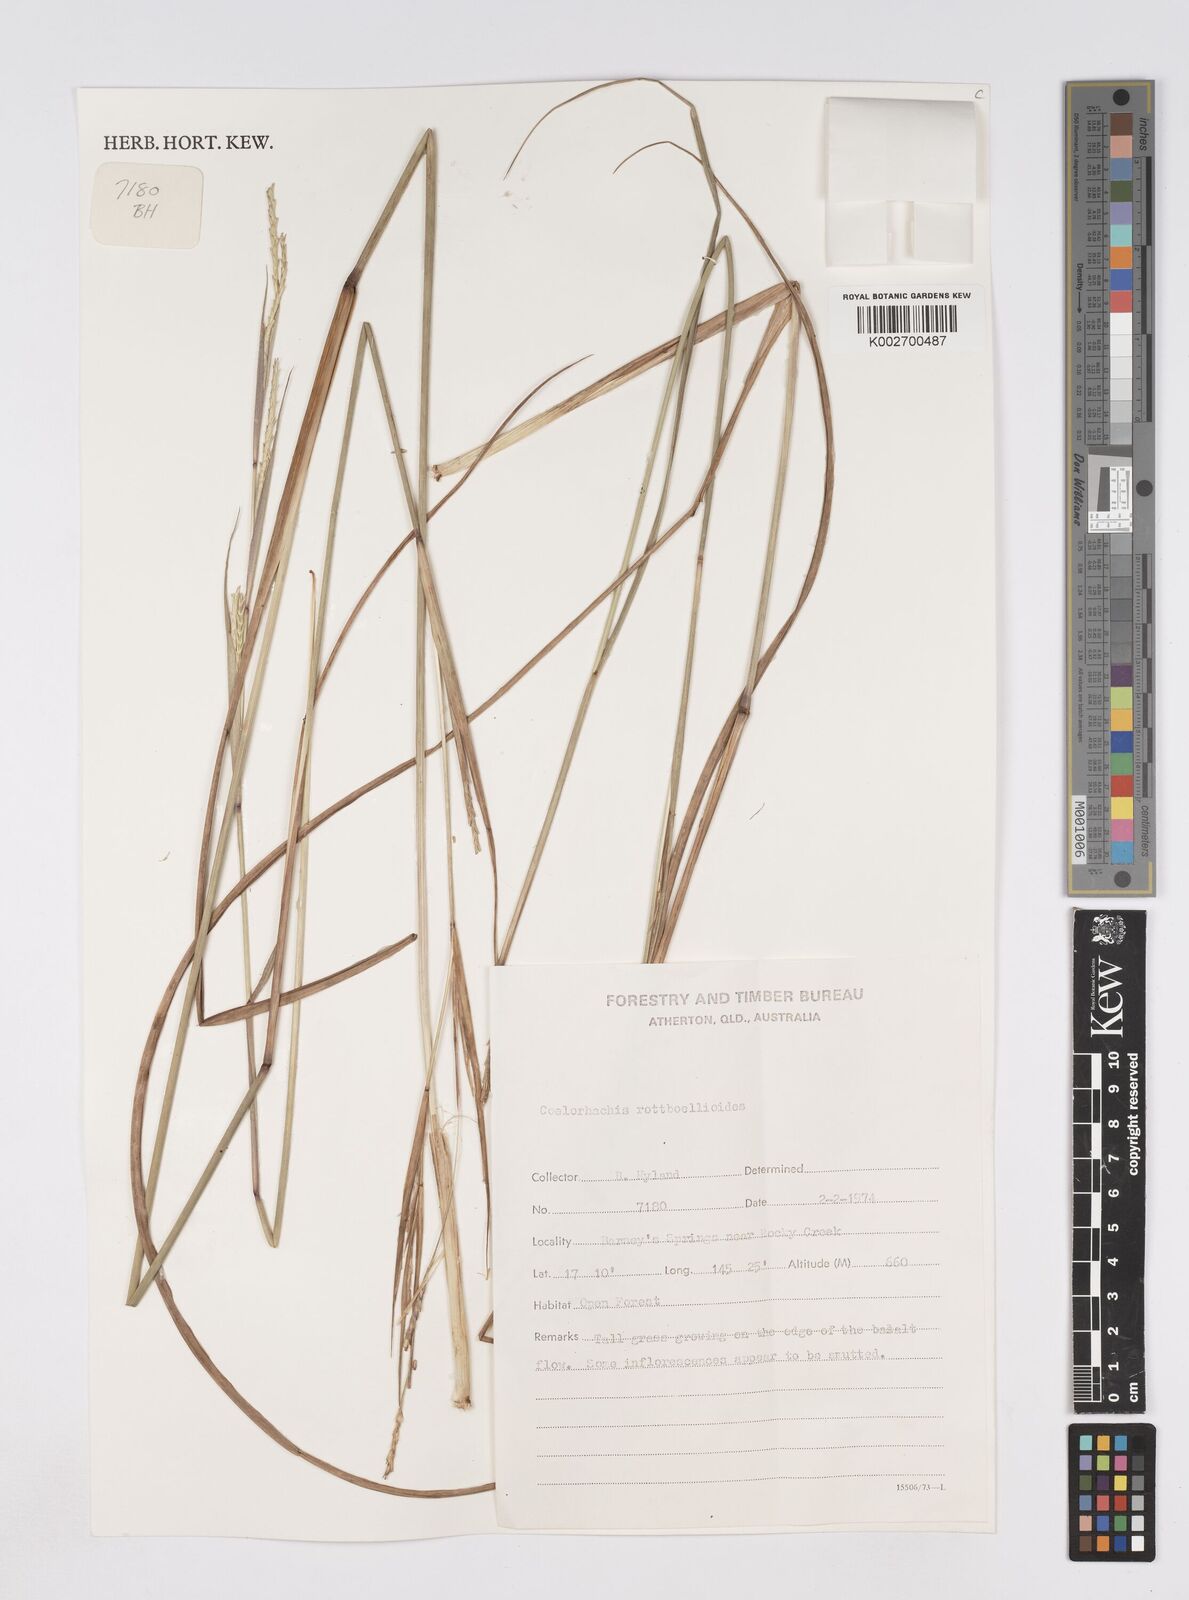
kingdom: Plantae
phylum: Tracheophyta
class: Liliopsida
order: Poales
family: Poaceae
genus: Rottboellia
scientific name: Rottboellia rottboellioides
